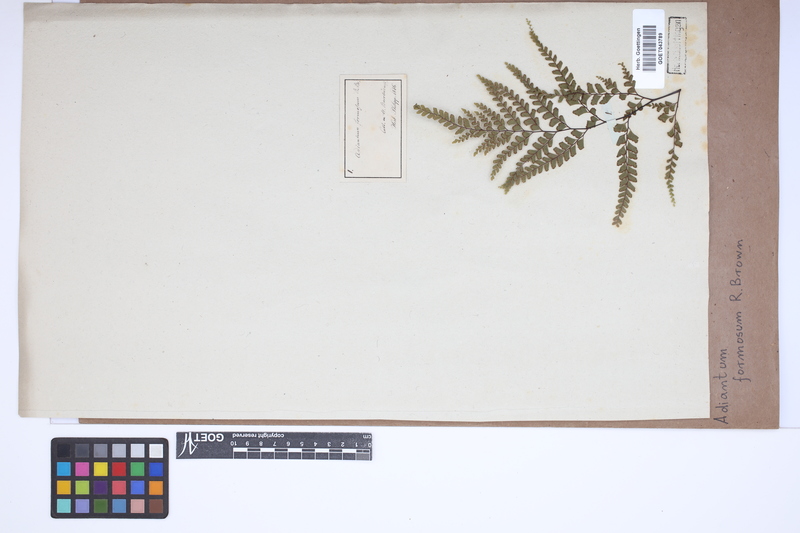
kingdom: Plantae
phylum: Tracheophyta
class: Polypodiopsida
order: Polypodiales
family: Pteridaceae
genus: Adiantum
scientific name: Adiantum formosum
